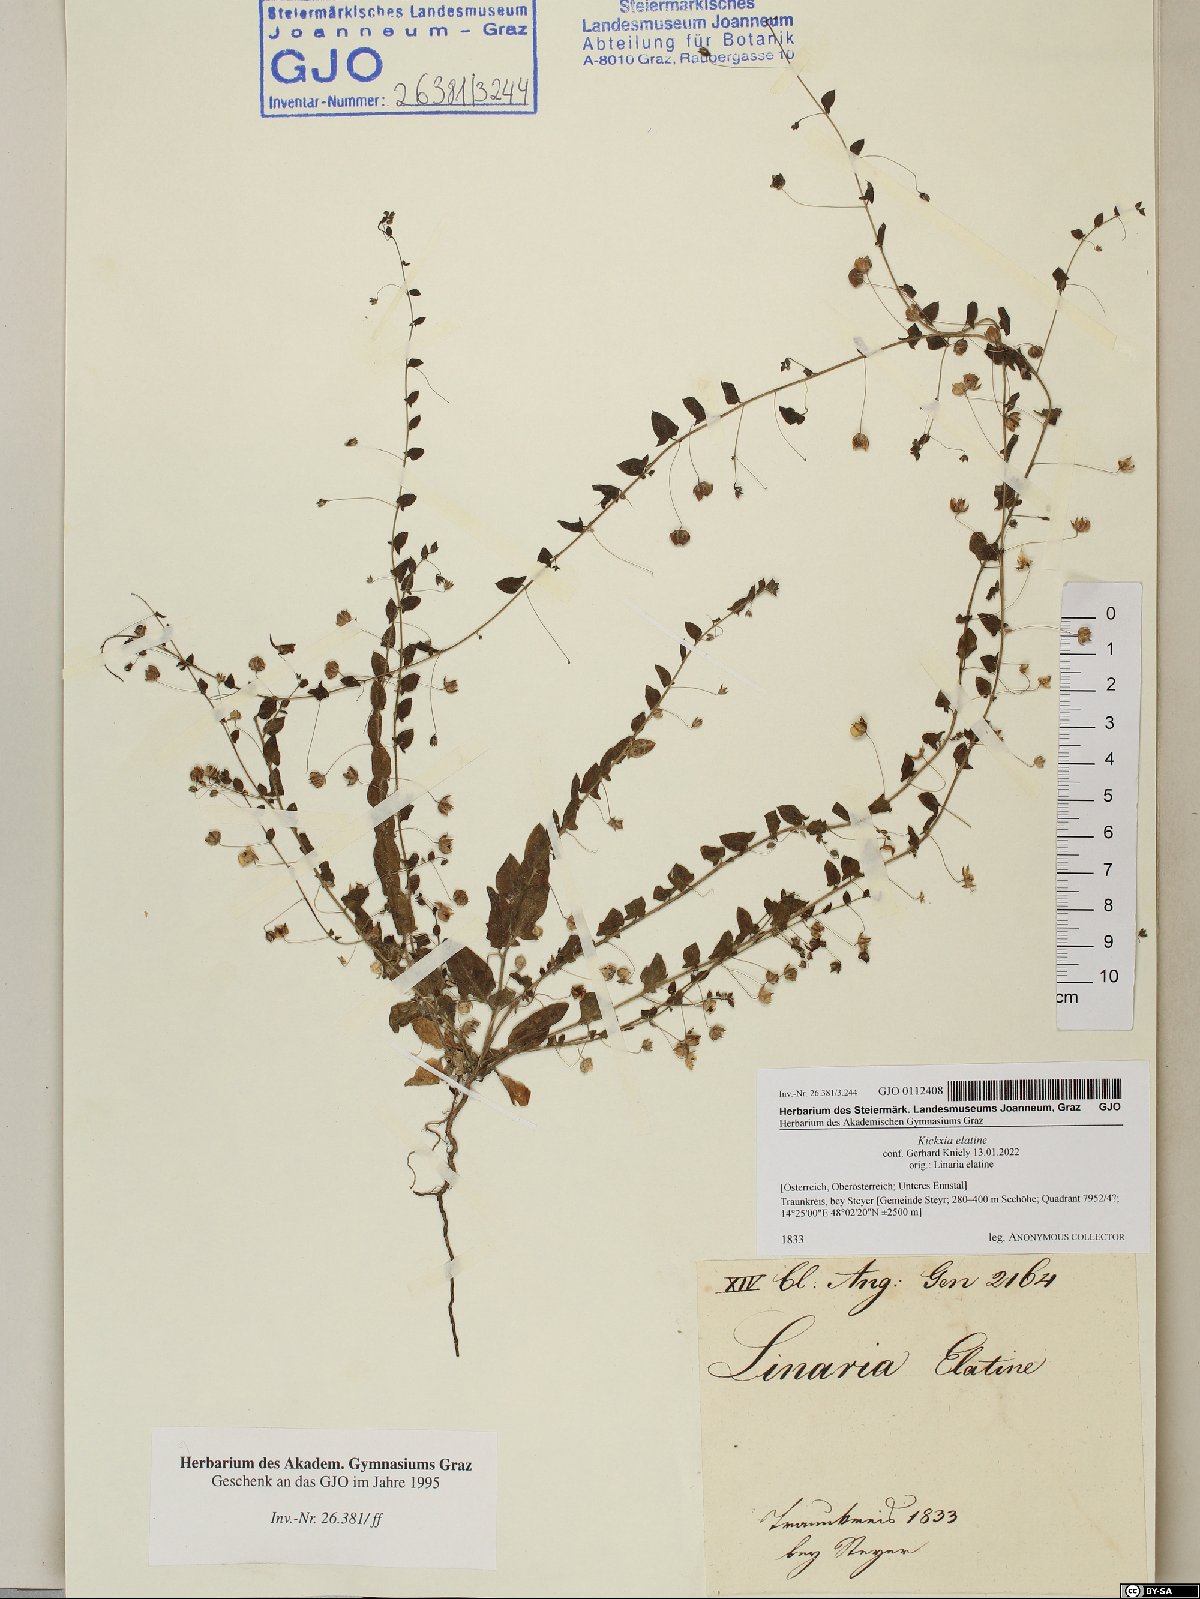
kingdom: Plantae
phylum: Tracheophyta
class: Magnoliopsida
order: Lamiales
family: Plantaginaceae
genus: Kickxia
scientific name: Kickxia elatine
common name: Sharp-leaved fluellen
